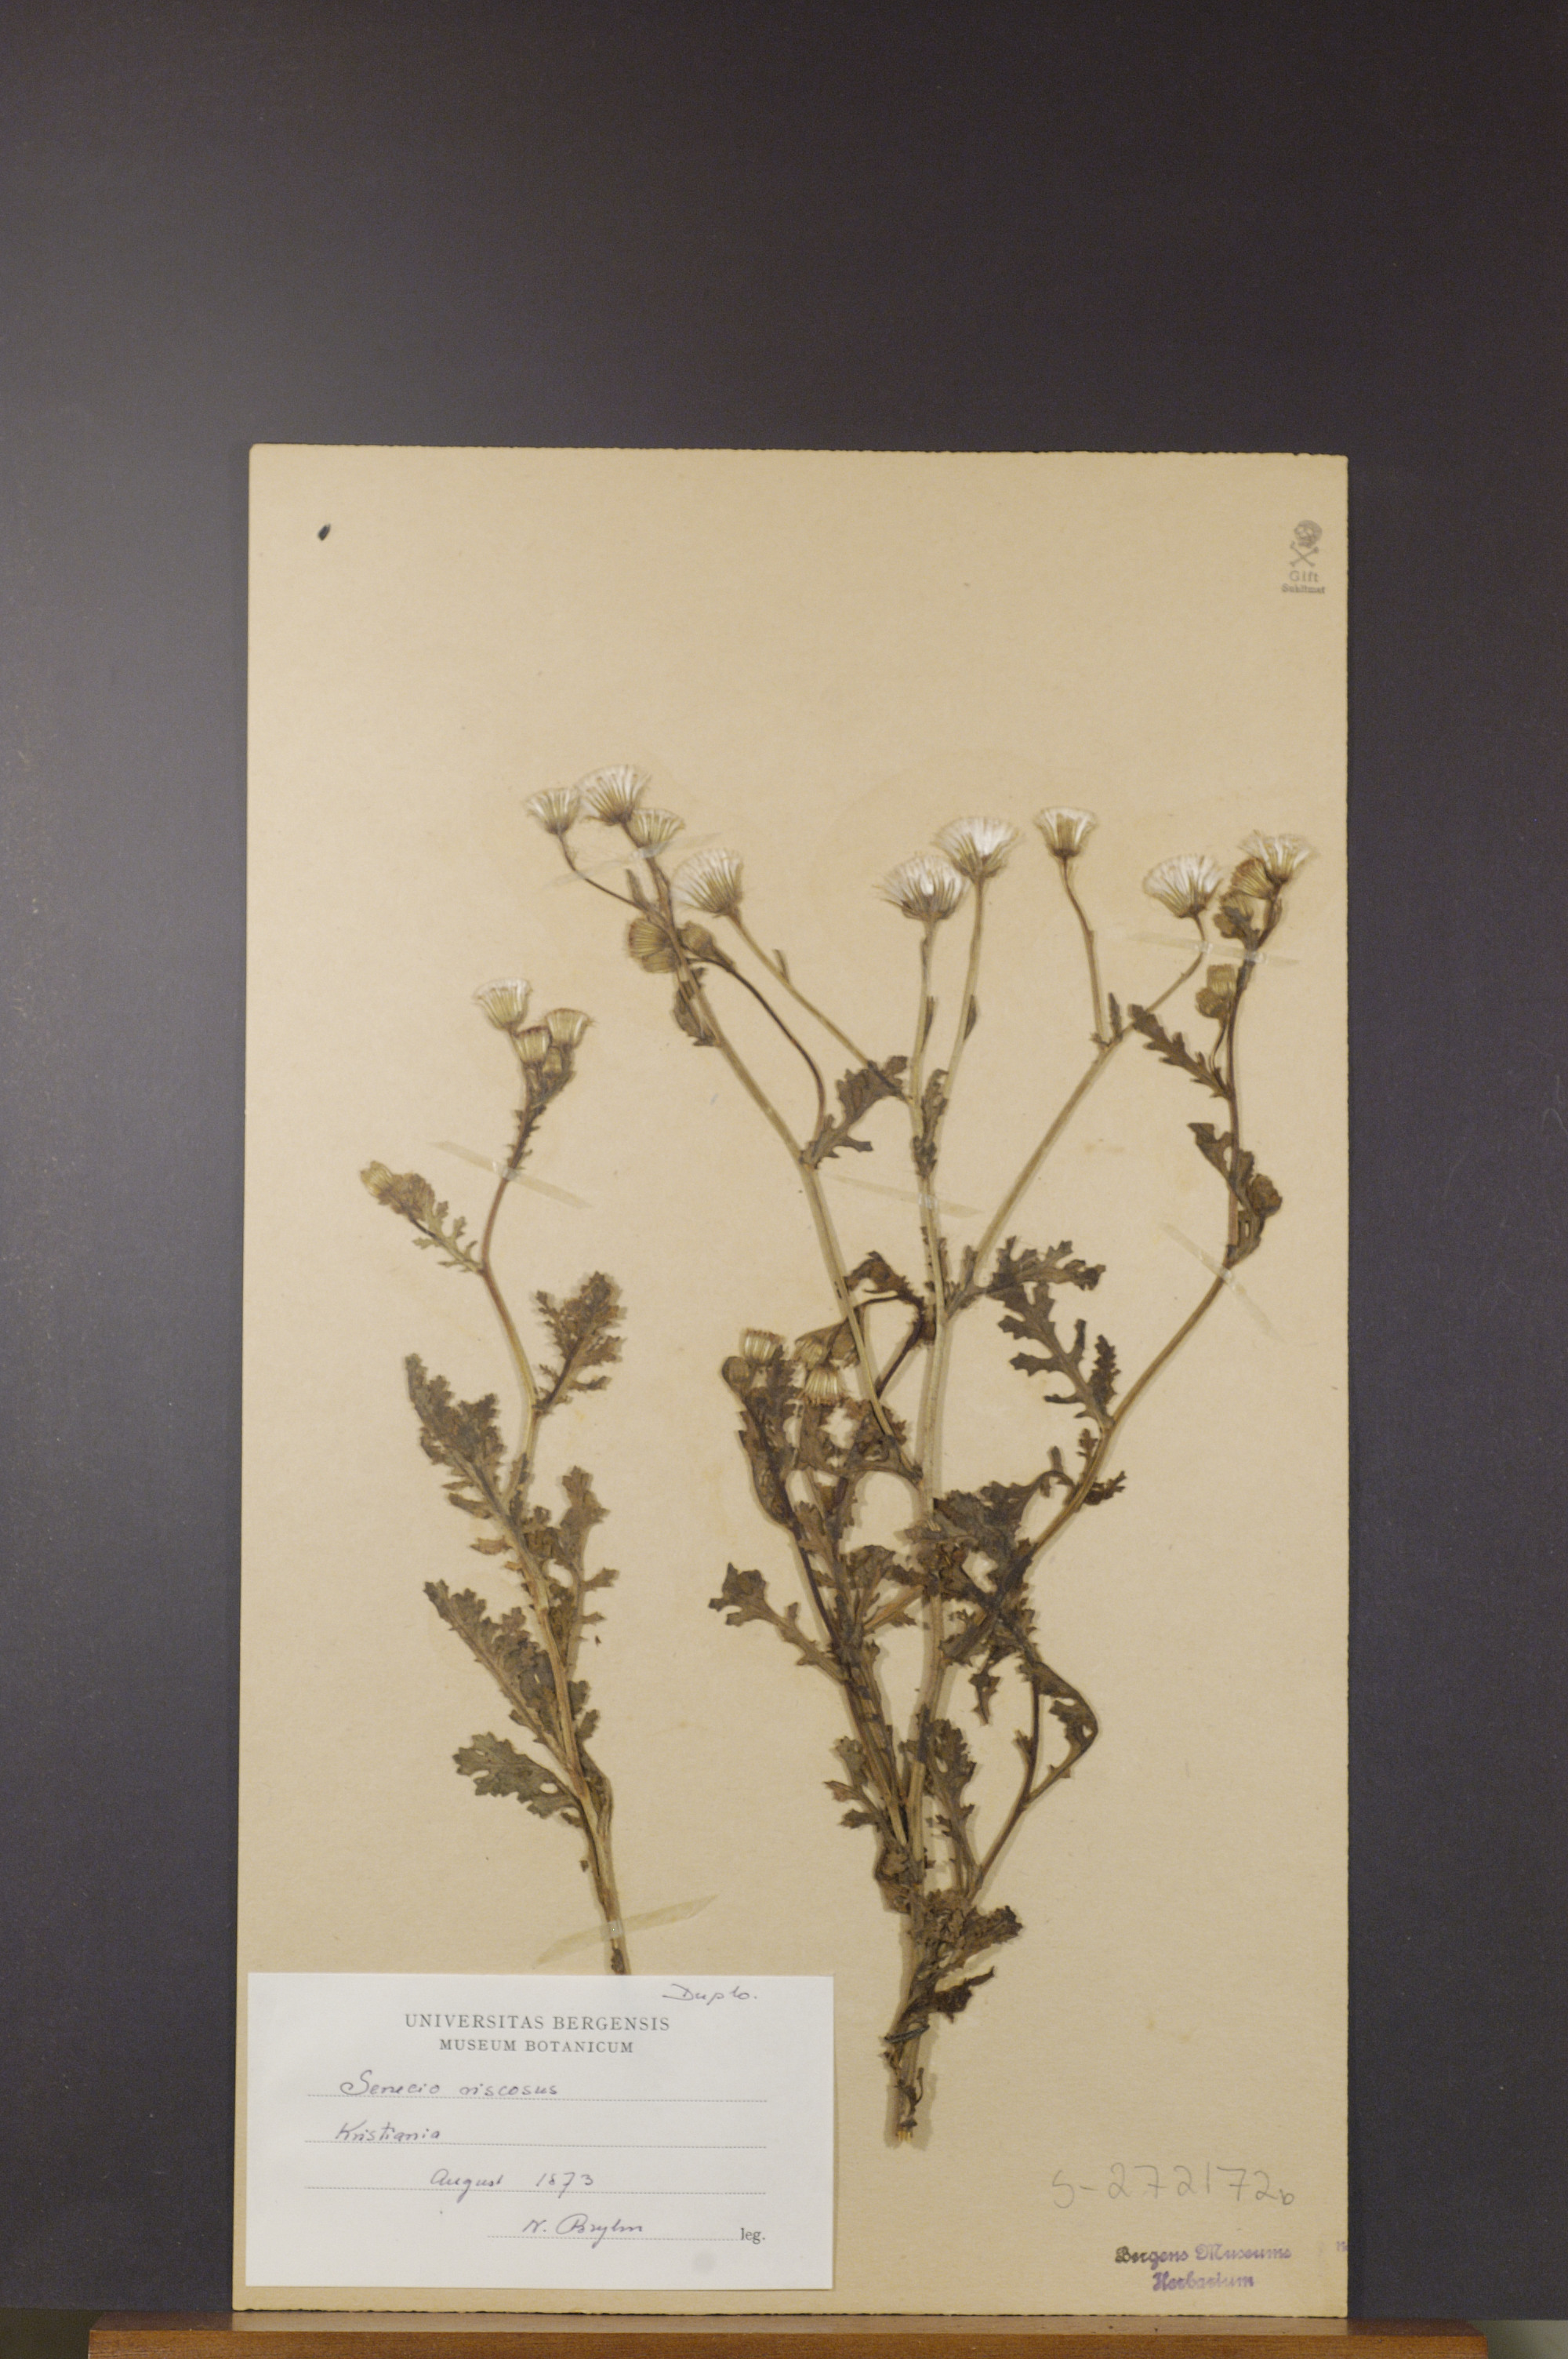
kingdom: Plantae
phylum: Tracheophyta
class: Magnoliopsida
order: Asterales
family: Asteraceae
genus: Senecio
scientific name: Senecio viscosus
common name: Sticky groundsel
